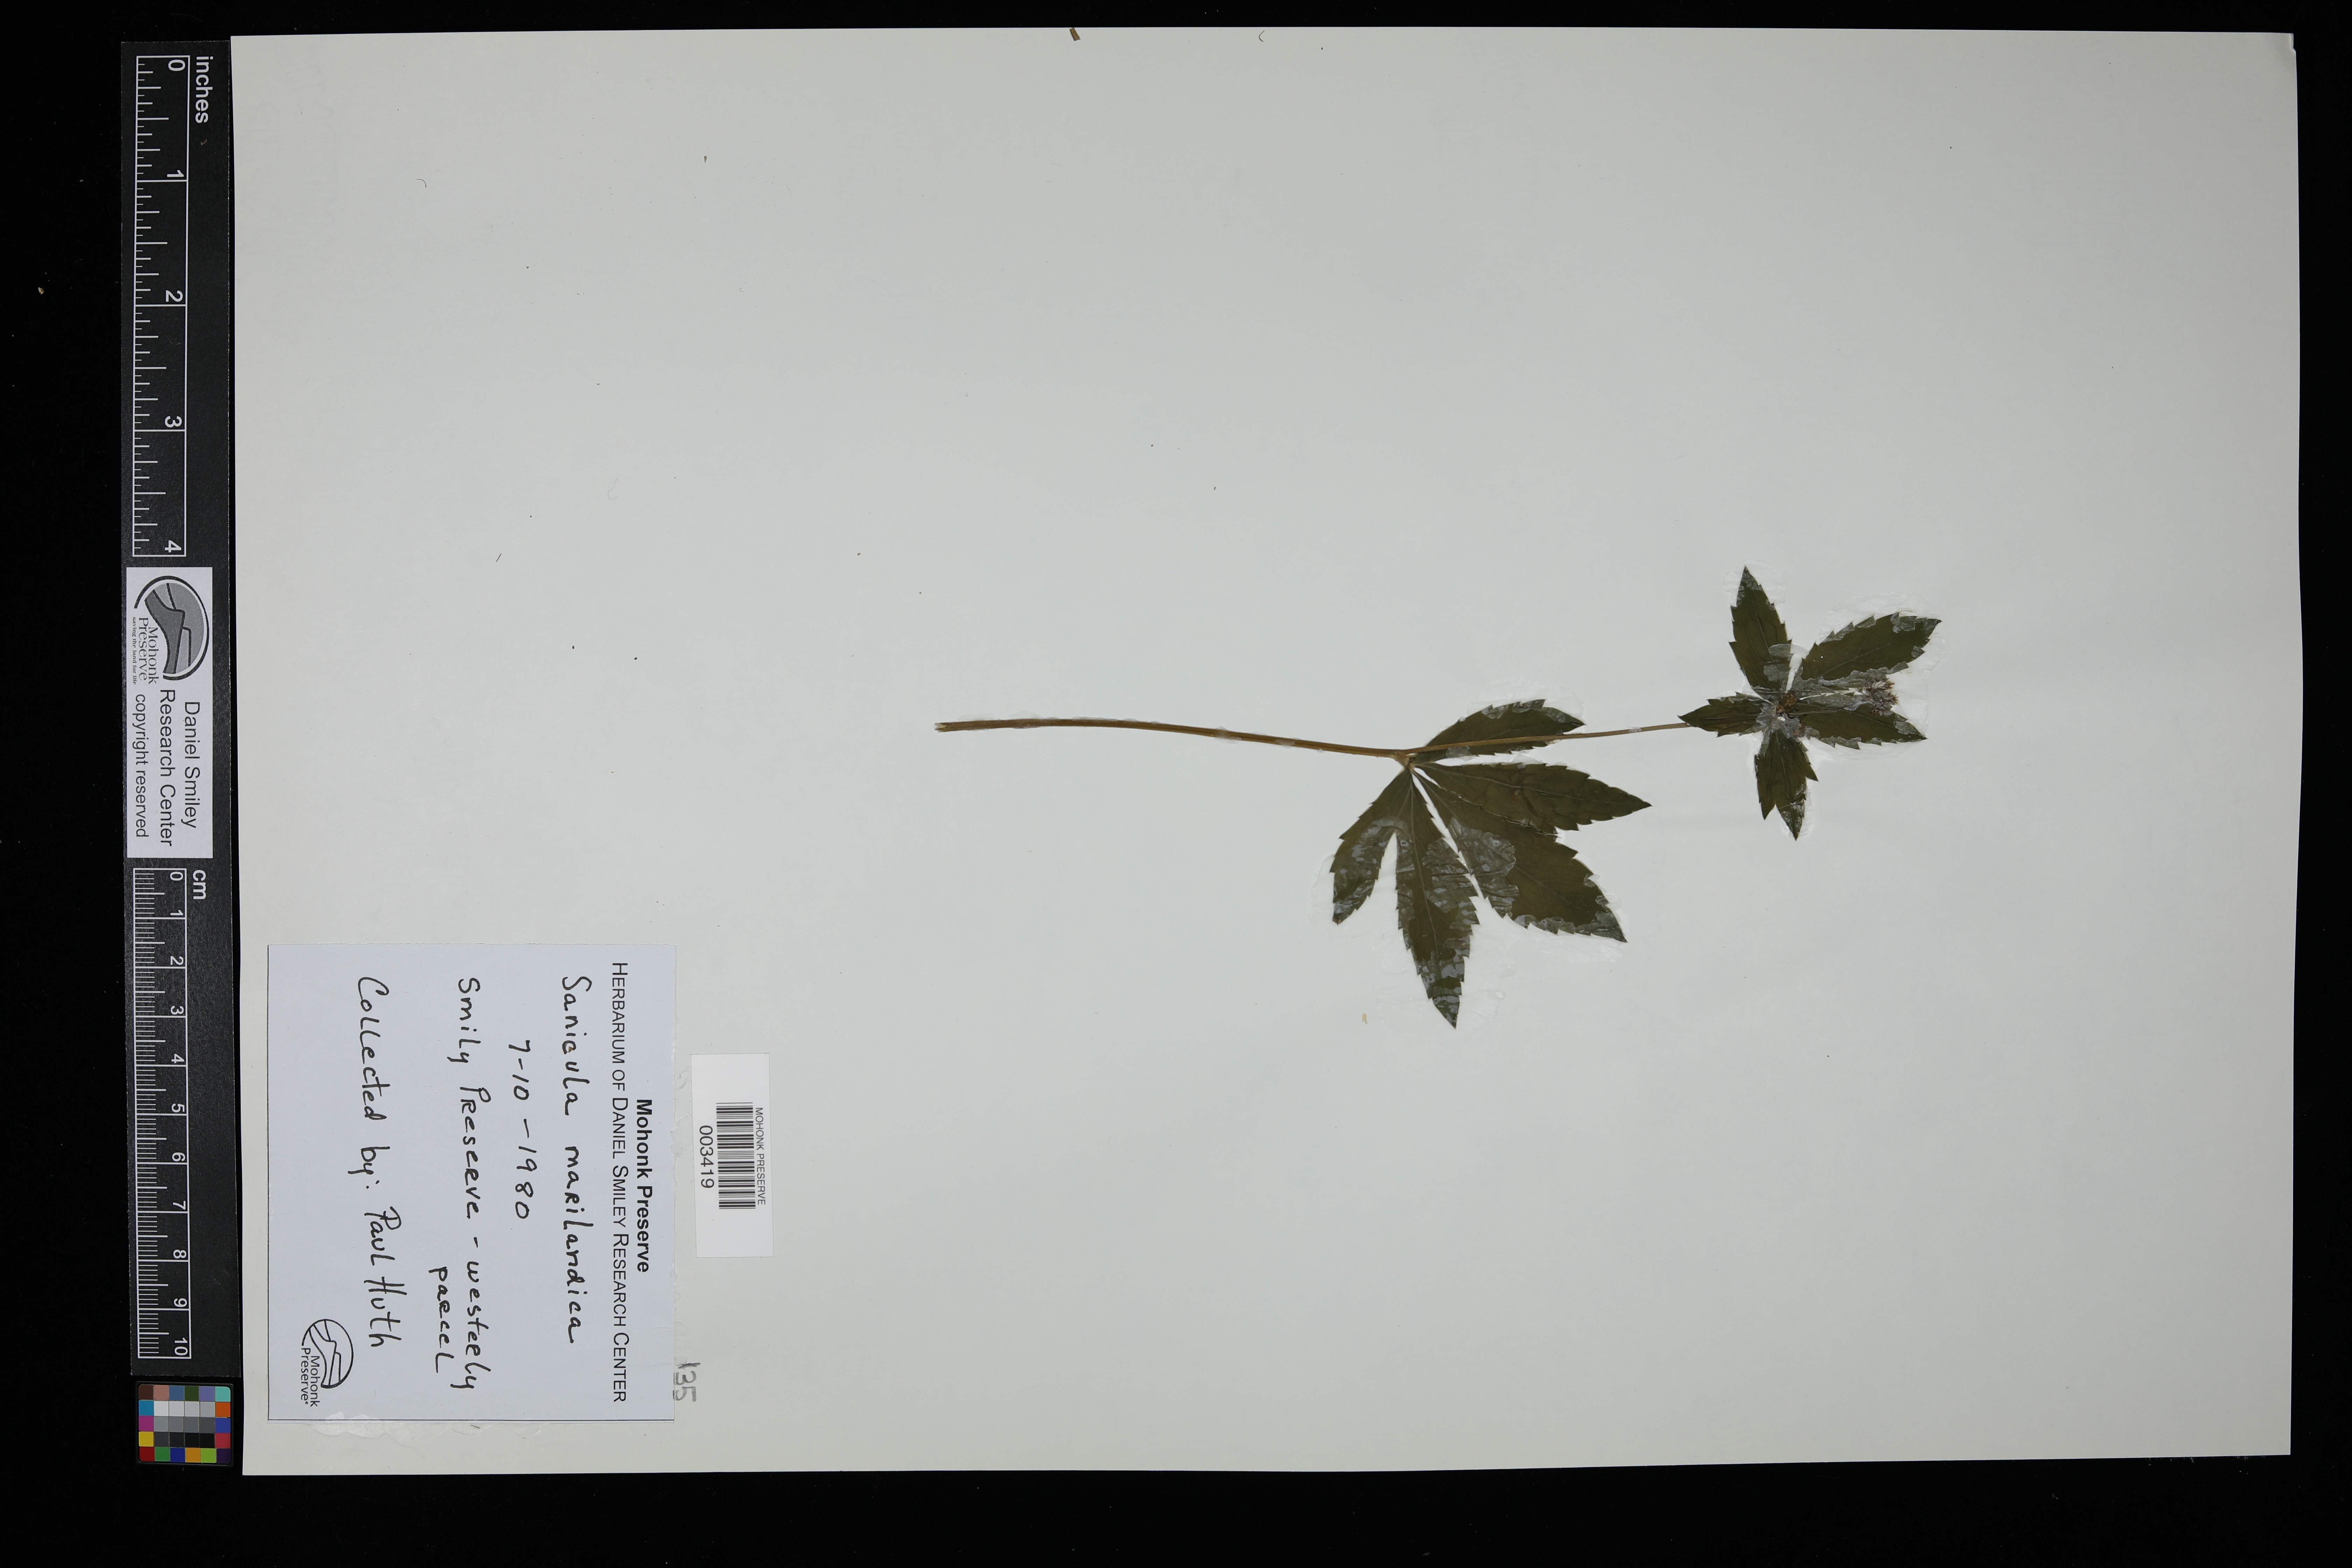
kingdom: Plantae
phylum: Tracheophyta
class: Magnoliopsida
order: Apiales
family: Apiaceae
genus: Sanicula
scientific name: Sanicula marilandica
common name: Black snakeroot
